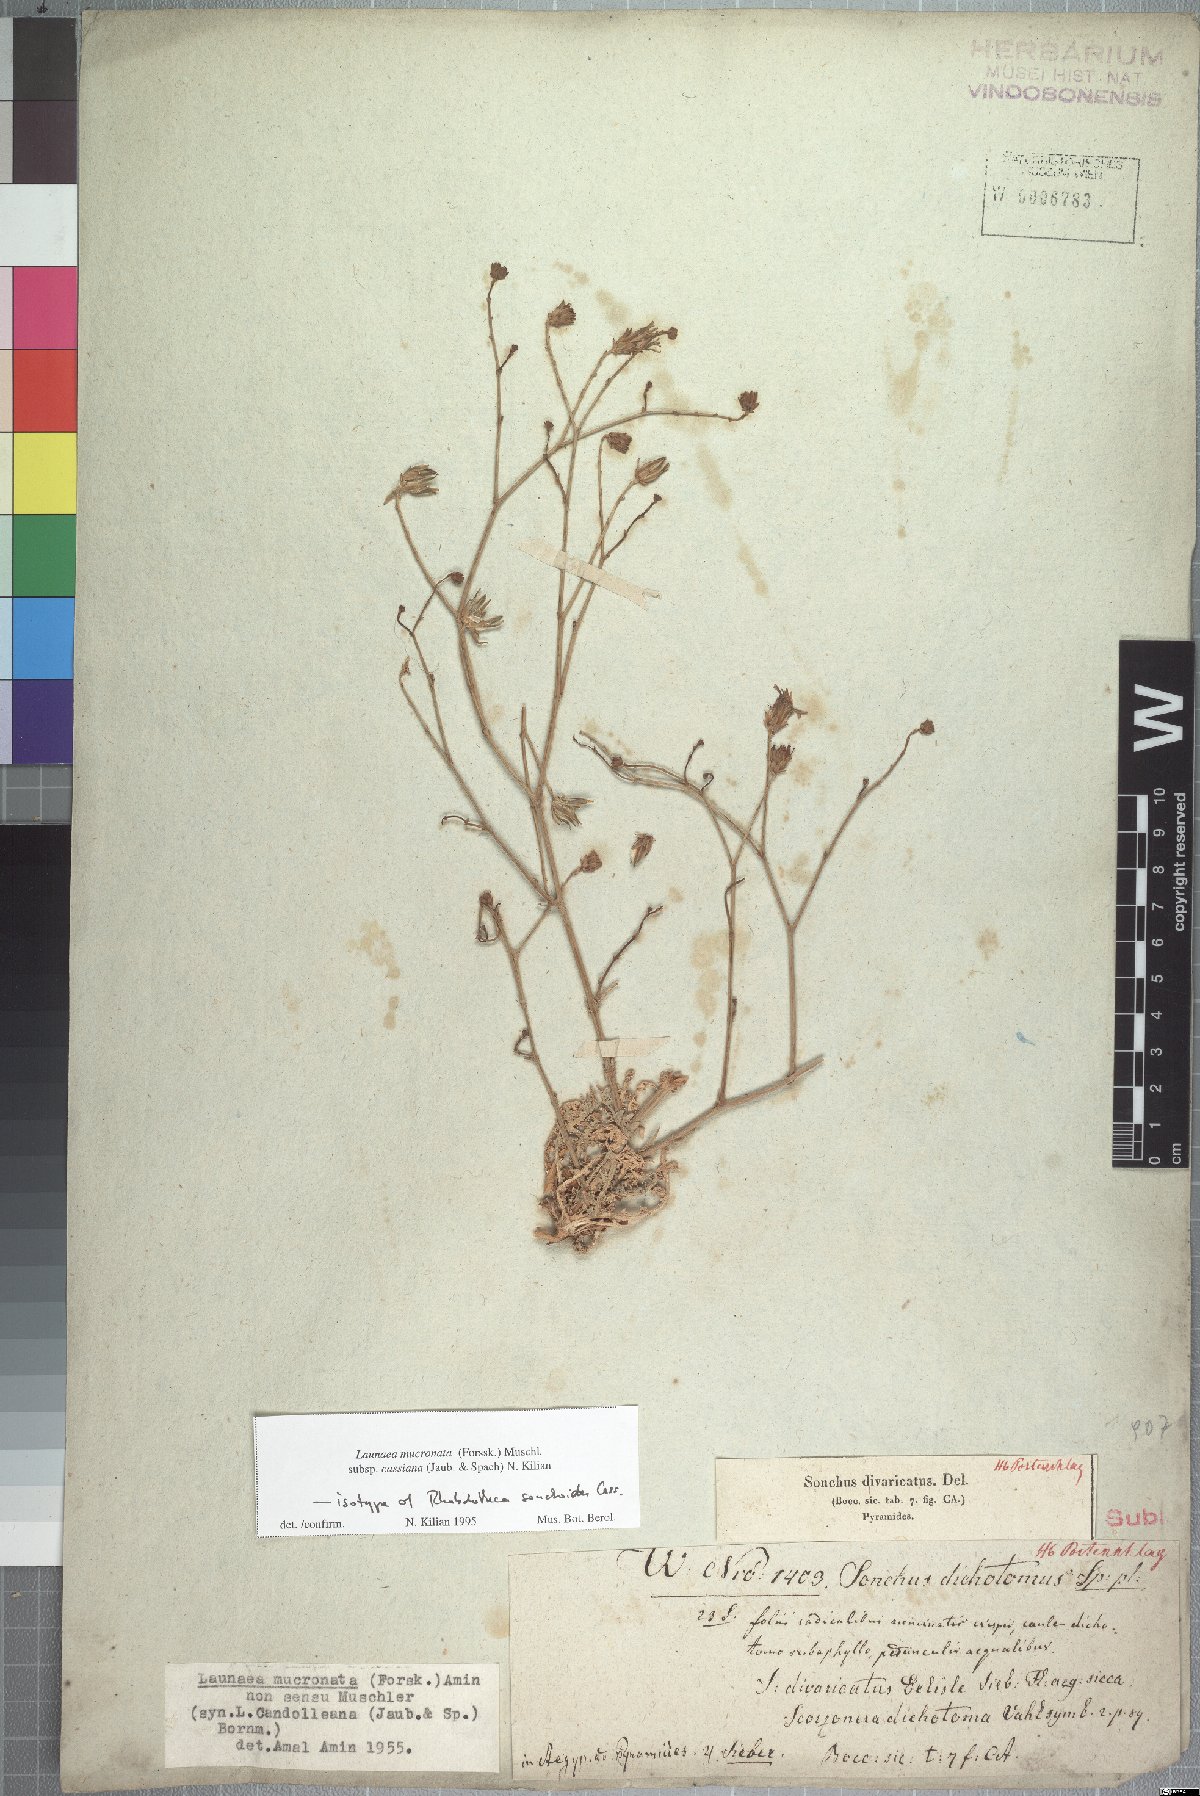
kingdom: Plantae
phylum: Tracheophyta
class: Magnoliopsida
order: Asterales
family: Asteraceae
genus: Launaea
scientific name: Launaea mucronata
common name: Mucronate launea
